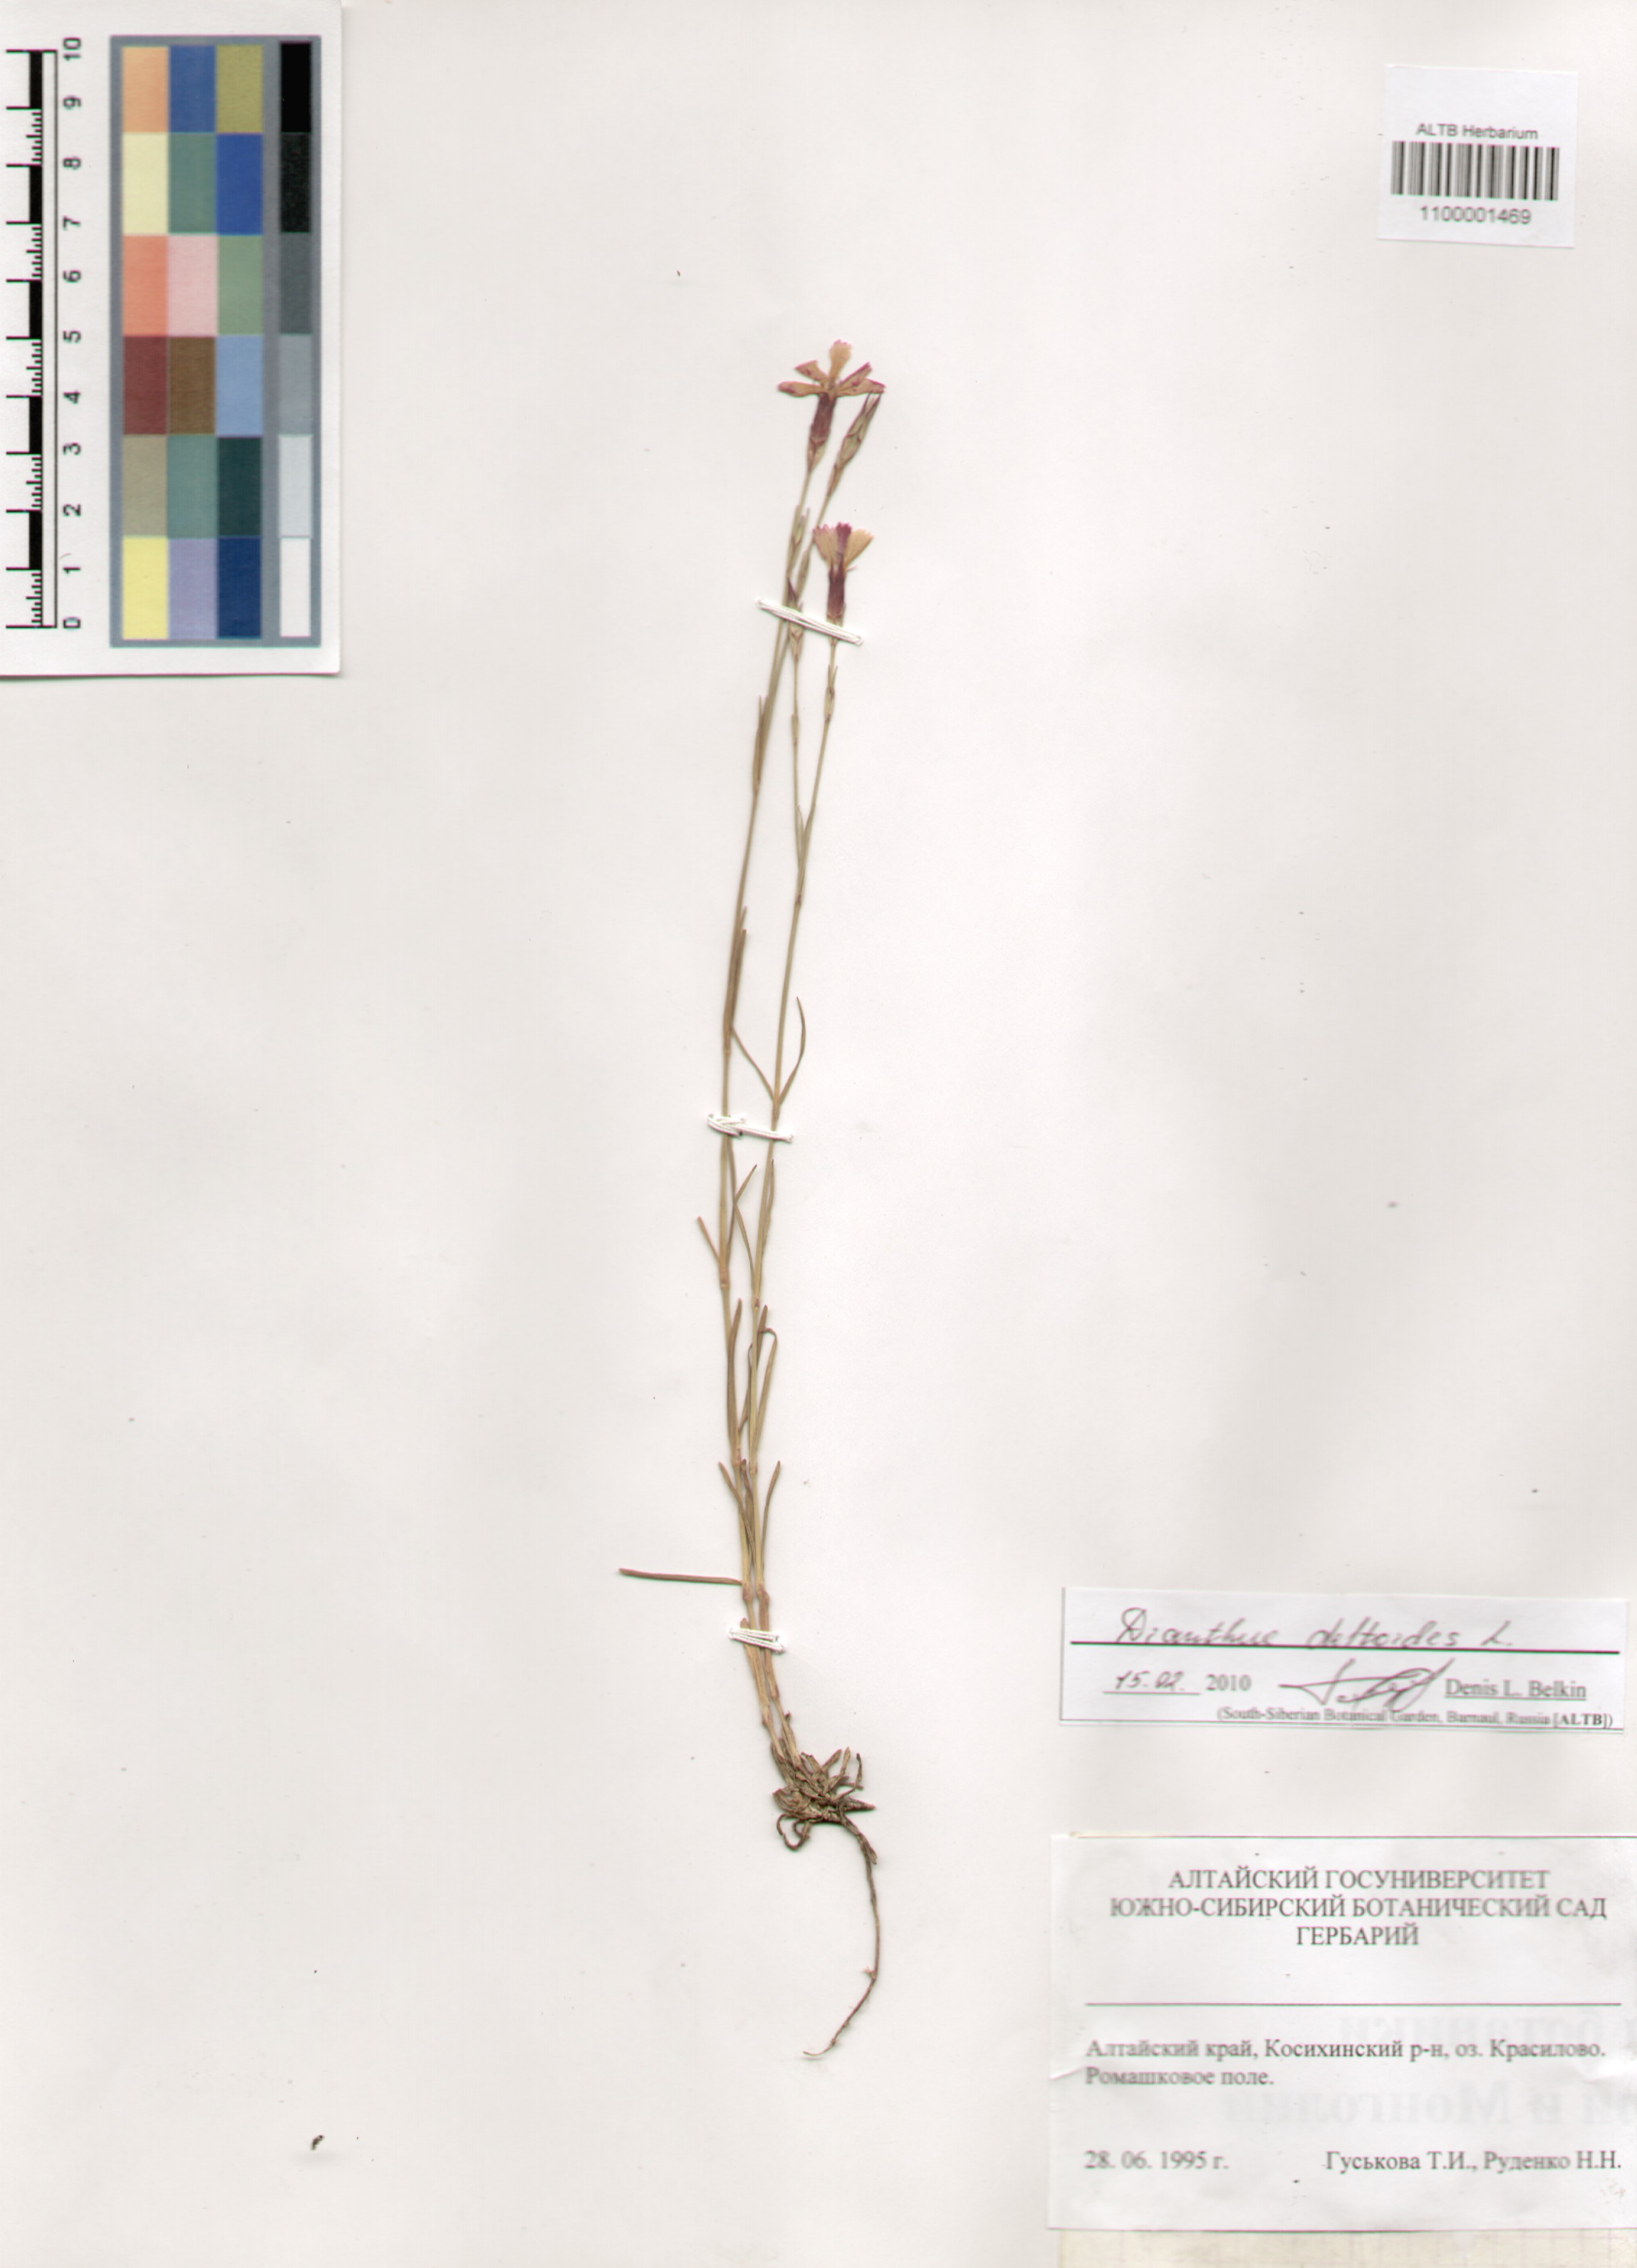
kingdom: Plantae
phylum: Tracheophyta
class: Magnoliopsida
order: Caryophyllales
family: Caryophyllaceae
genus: Dianthus
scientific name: Dianthus deltoides
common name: Maiden pink
